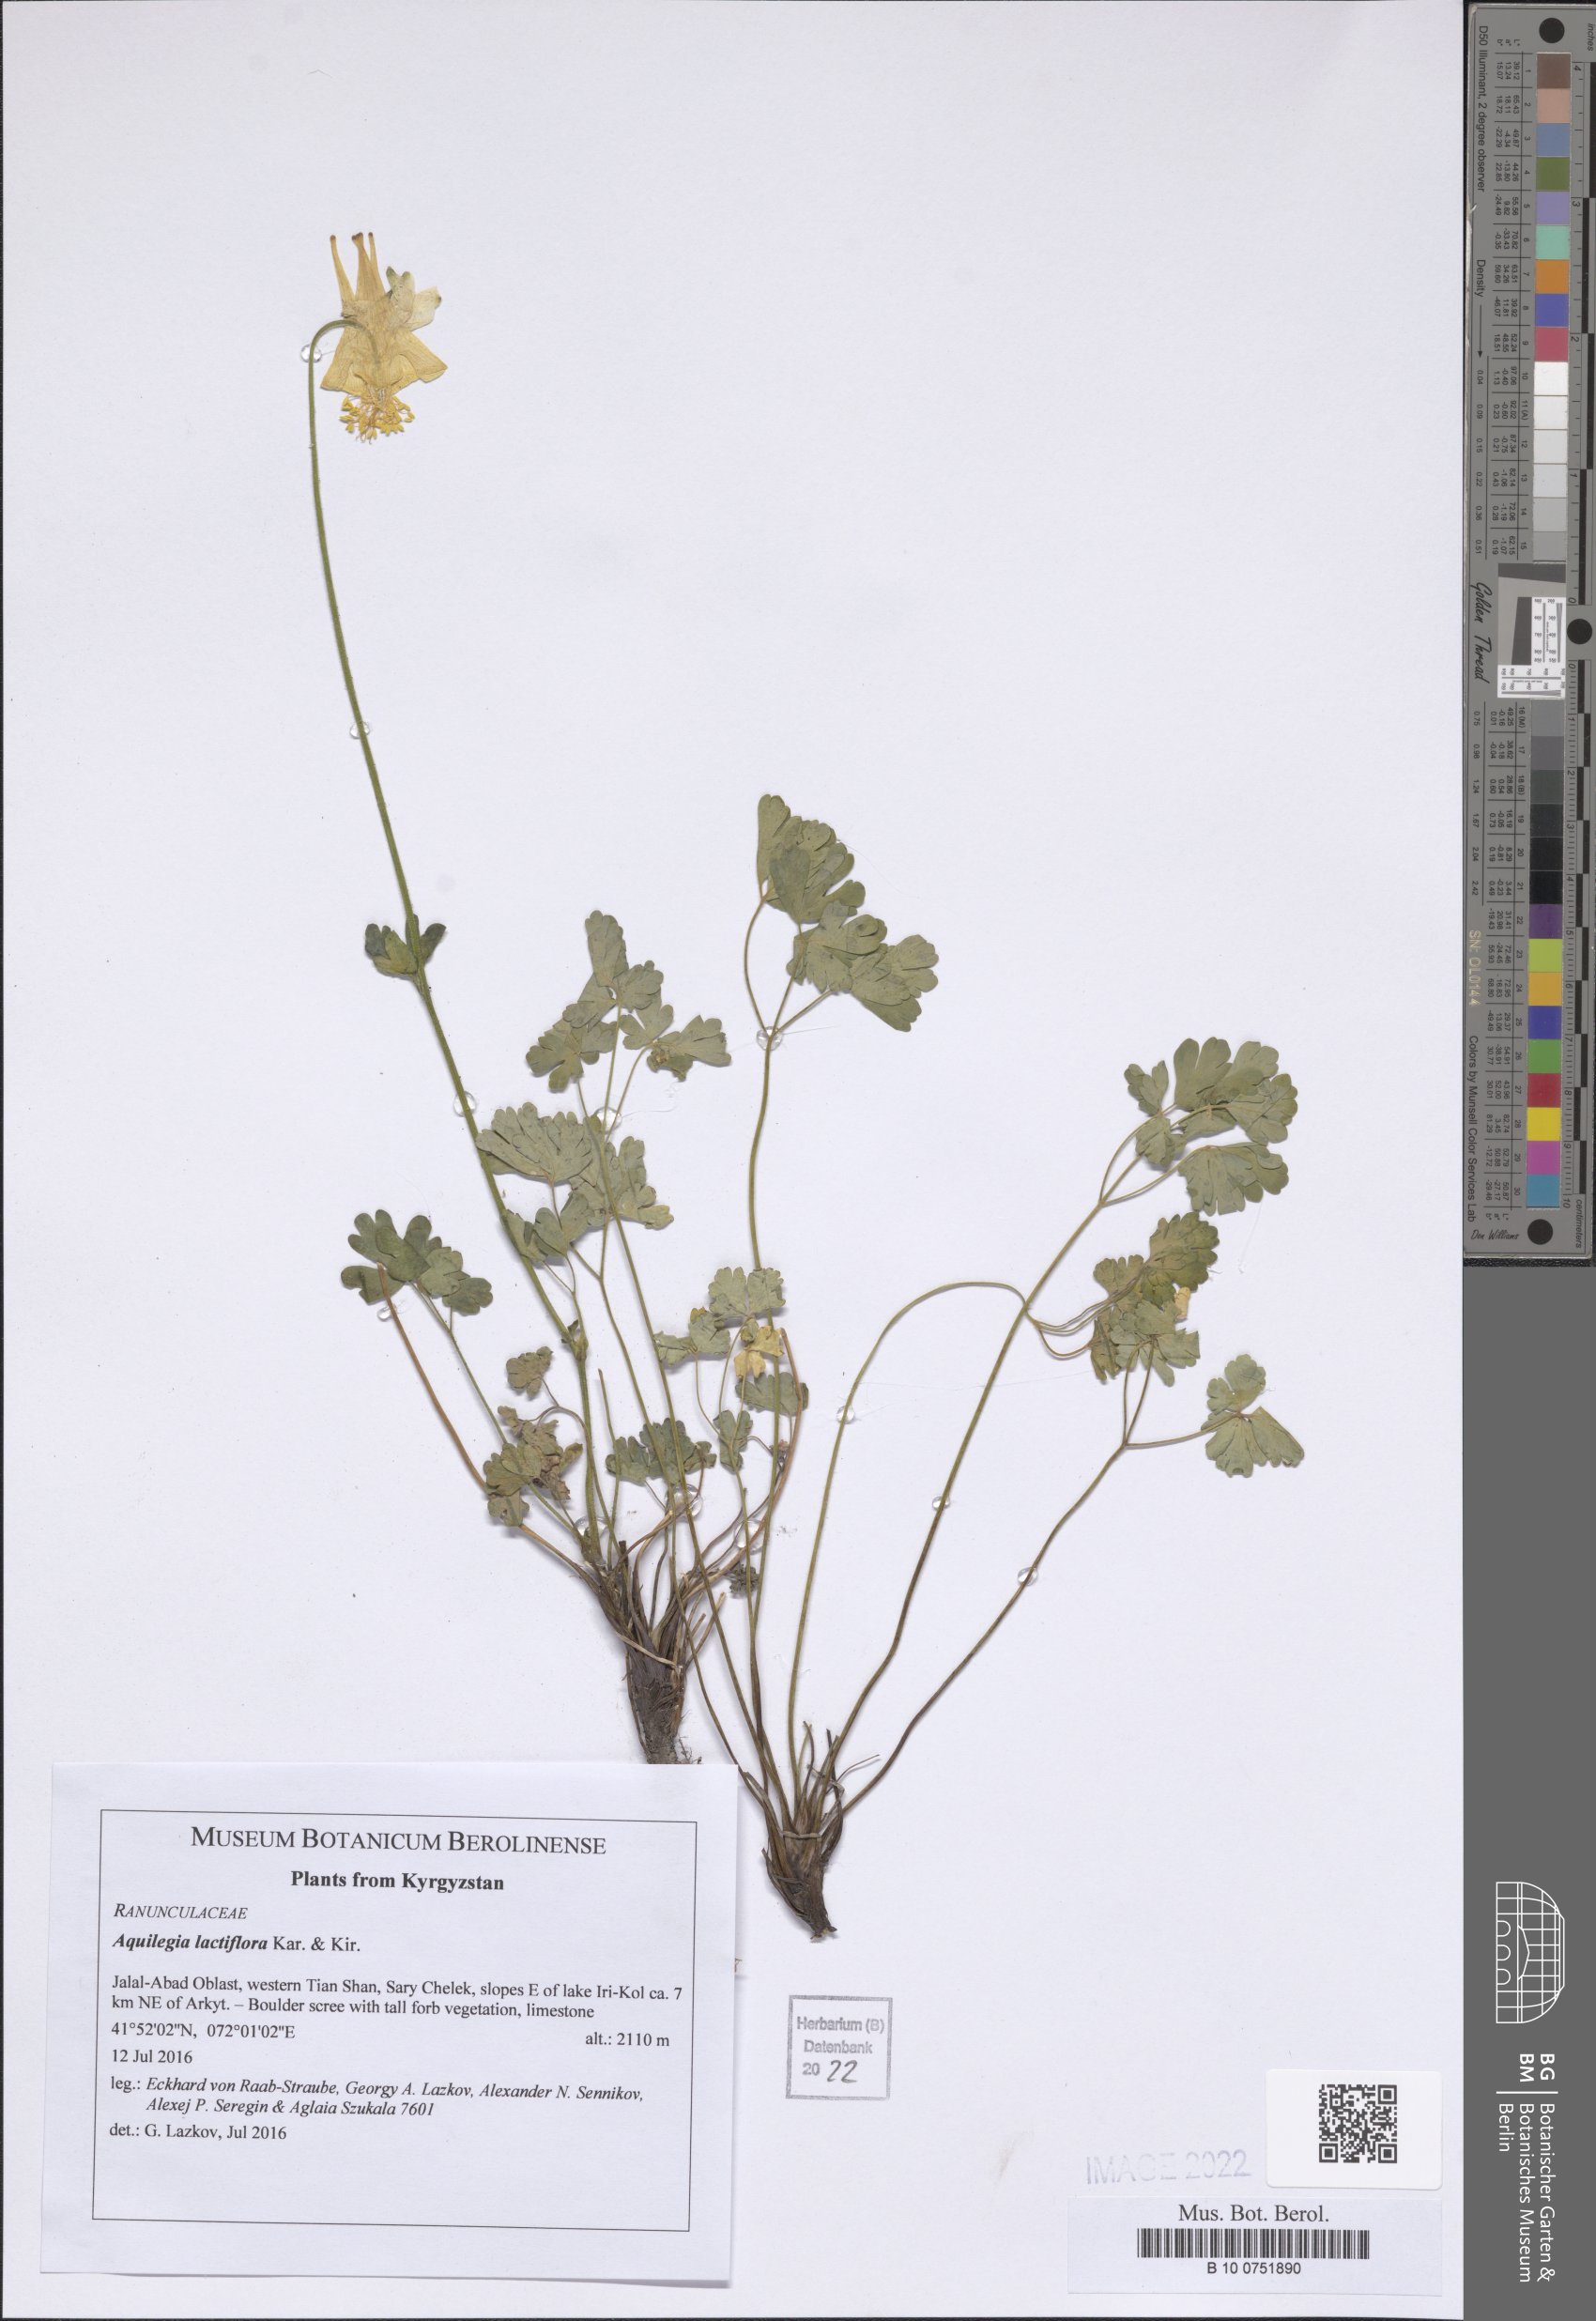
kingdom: Plantae
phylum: Tracheophyta
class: Magnoliopsida
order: Ranunculales
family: Ranunculaceae
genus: Aquilegia
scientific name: Aquilegia lactiflora
